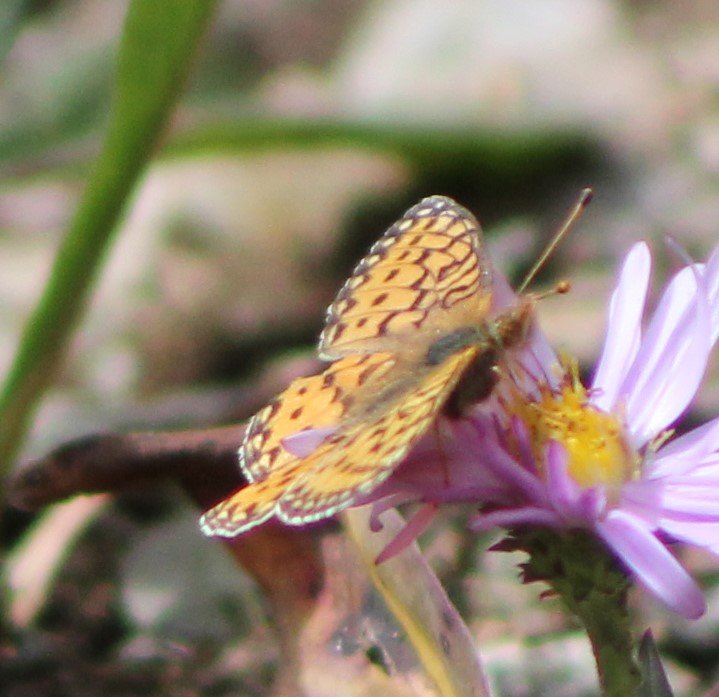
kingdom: Animalia
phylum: Arthropoda
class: Insecta
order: Lepidoptera
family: Nymphalidae
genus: Boloria
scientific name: Boloria selene
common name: Silver-bordered Fritillary
